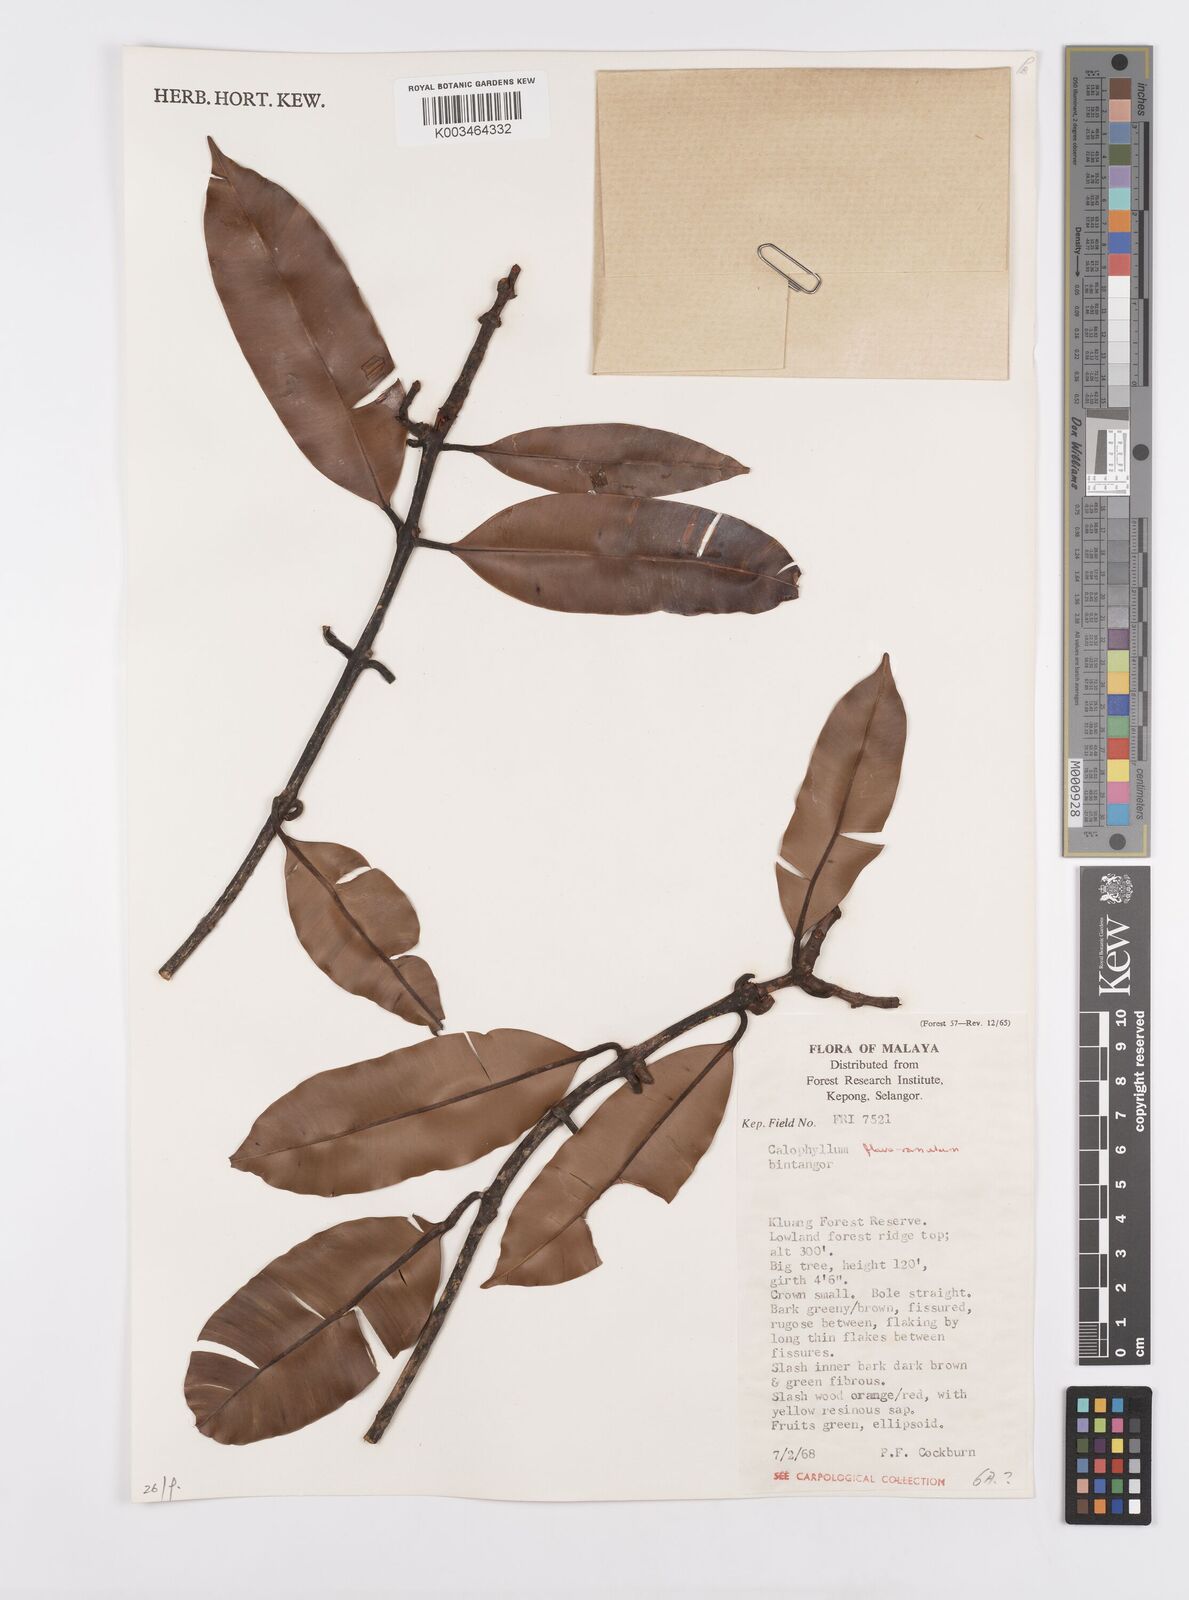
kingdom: Plantae
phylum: Tracheophyta
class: Magnoliopsida
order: Malpighiales
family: Calophyllaceae
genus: Calophyllum
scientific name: Calophyllum flavoramulum
